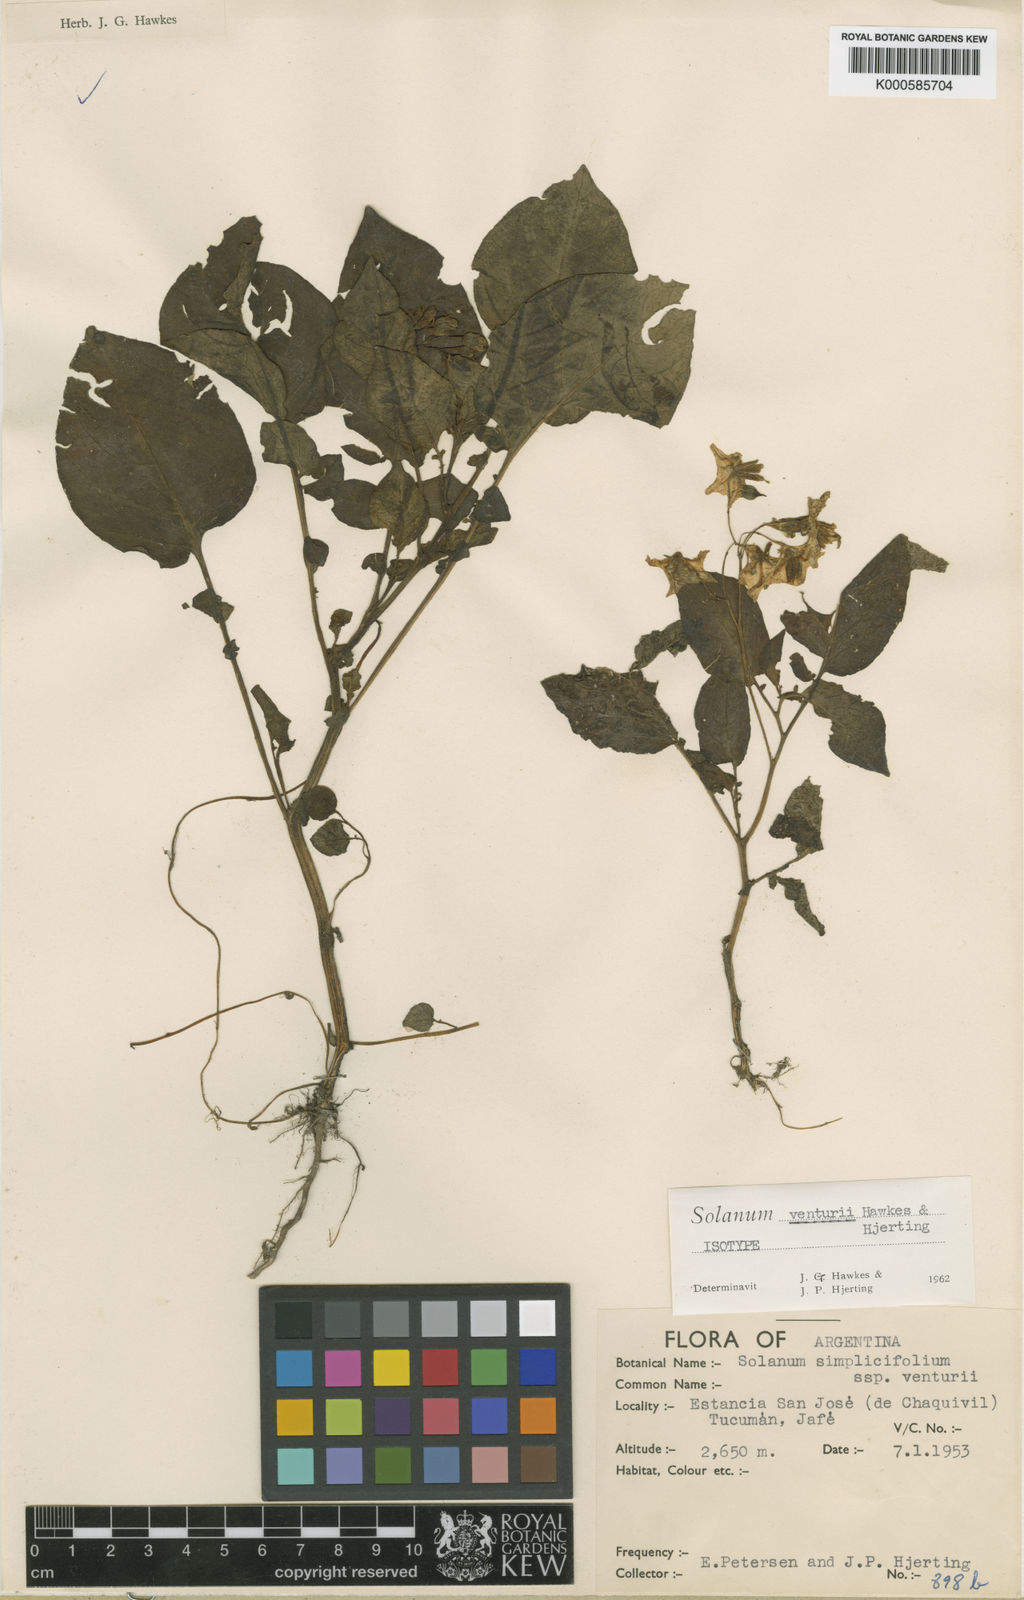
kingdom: Plantae
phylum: Tracheophyta
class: Magnoliopsida
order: Solanales
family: Solanaceae
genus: Solanum
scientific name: Solanum venturii
